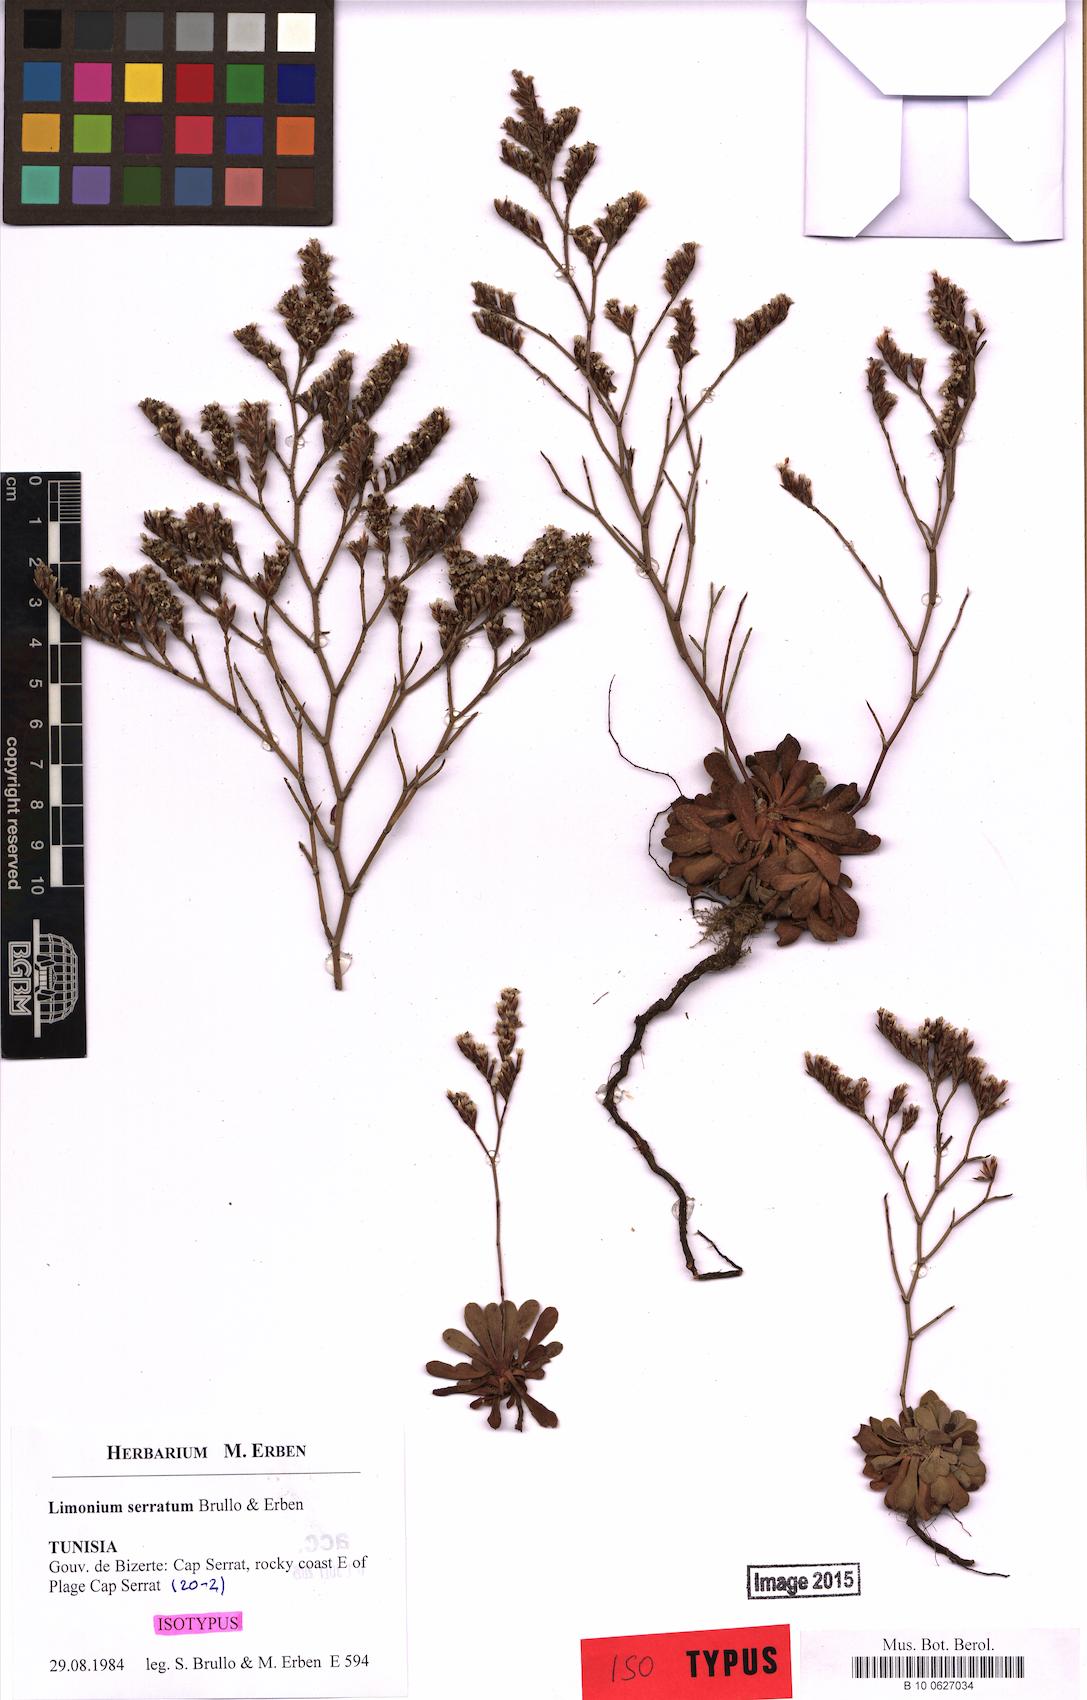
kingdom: Plantae
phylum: Tracheophyta
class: Magnoliopsida
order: Caryophyllales
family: Plumbaginaceae
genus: Limonium
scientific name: Limonium serratum
